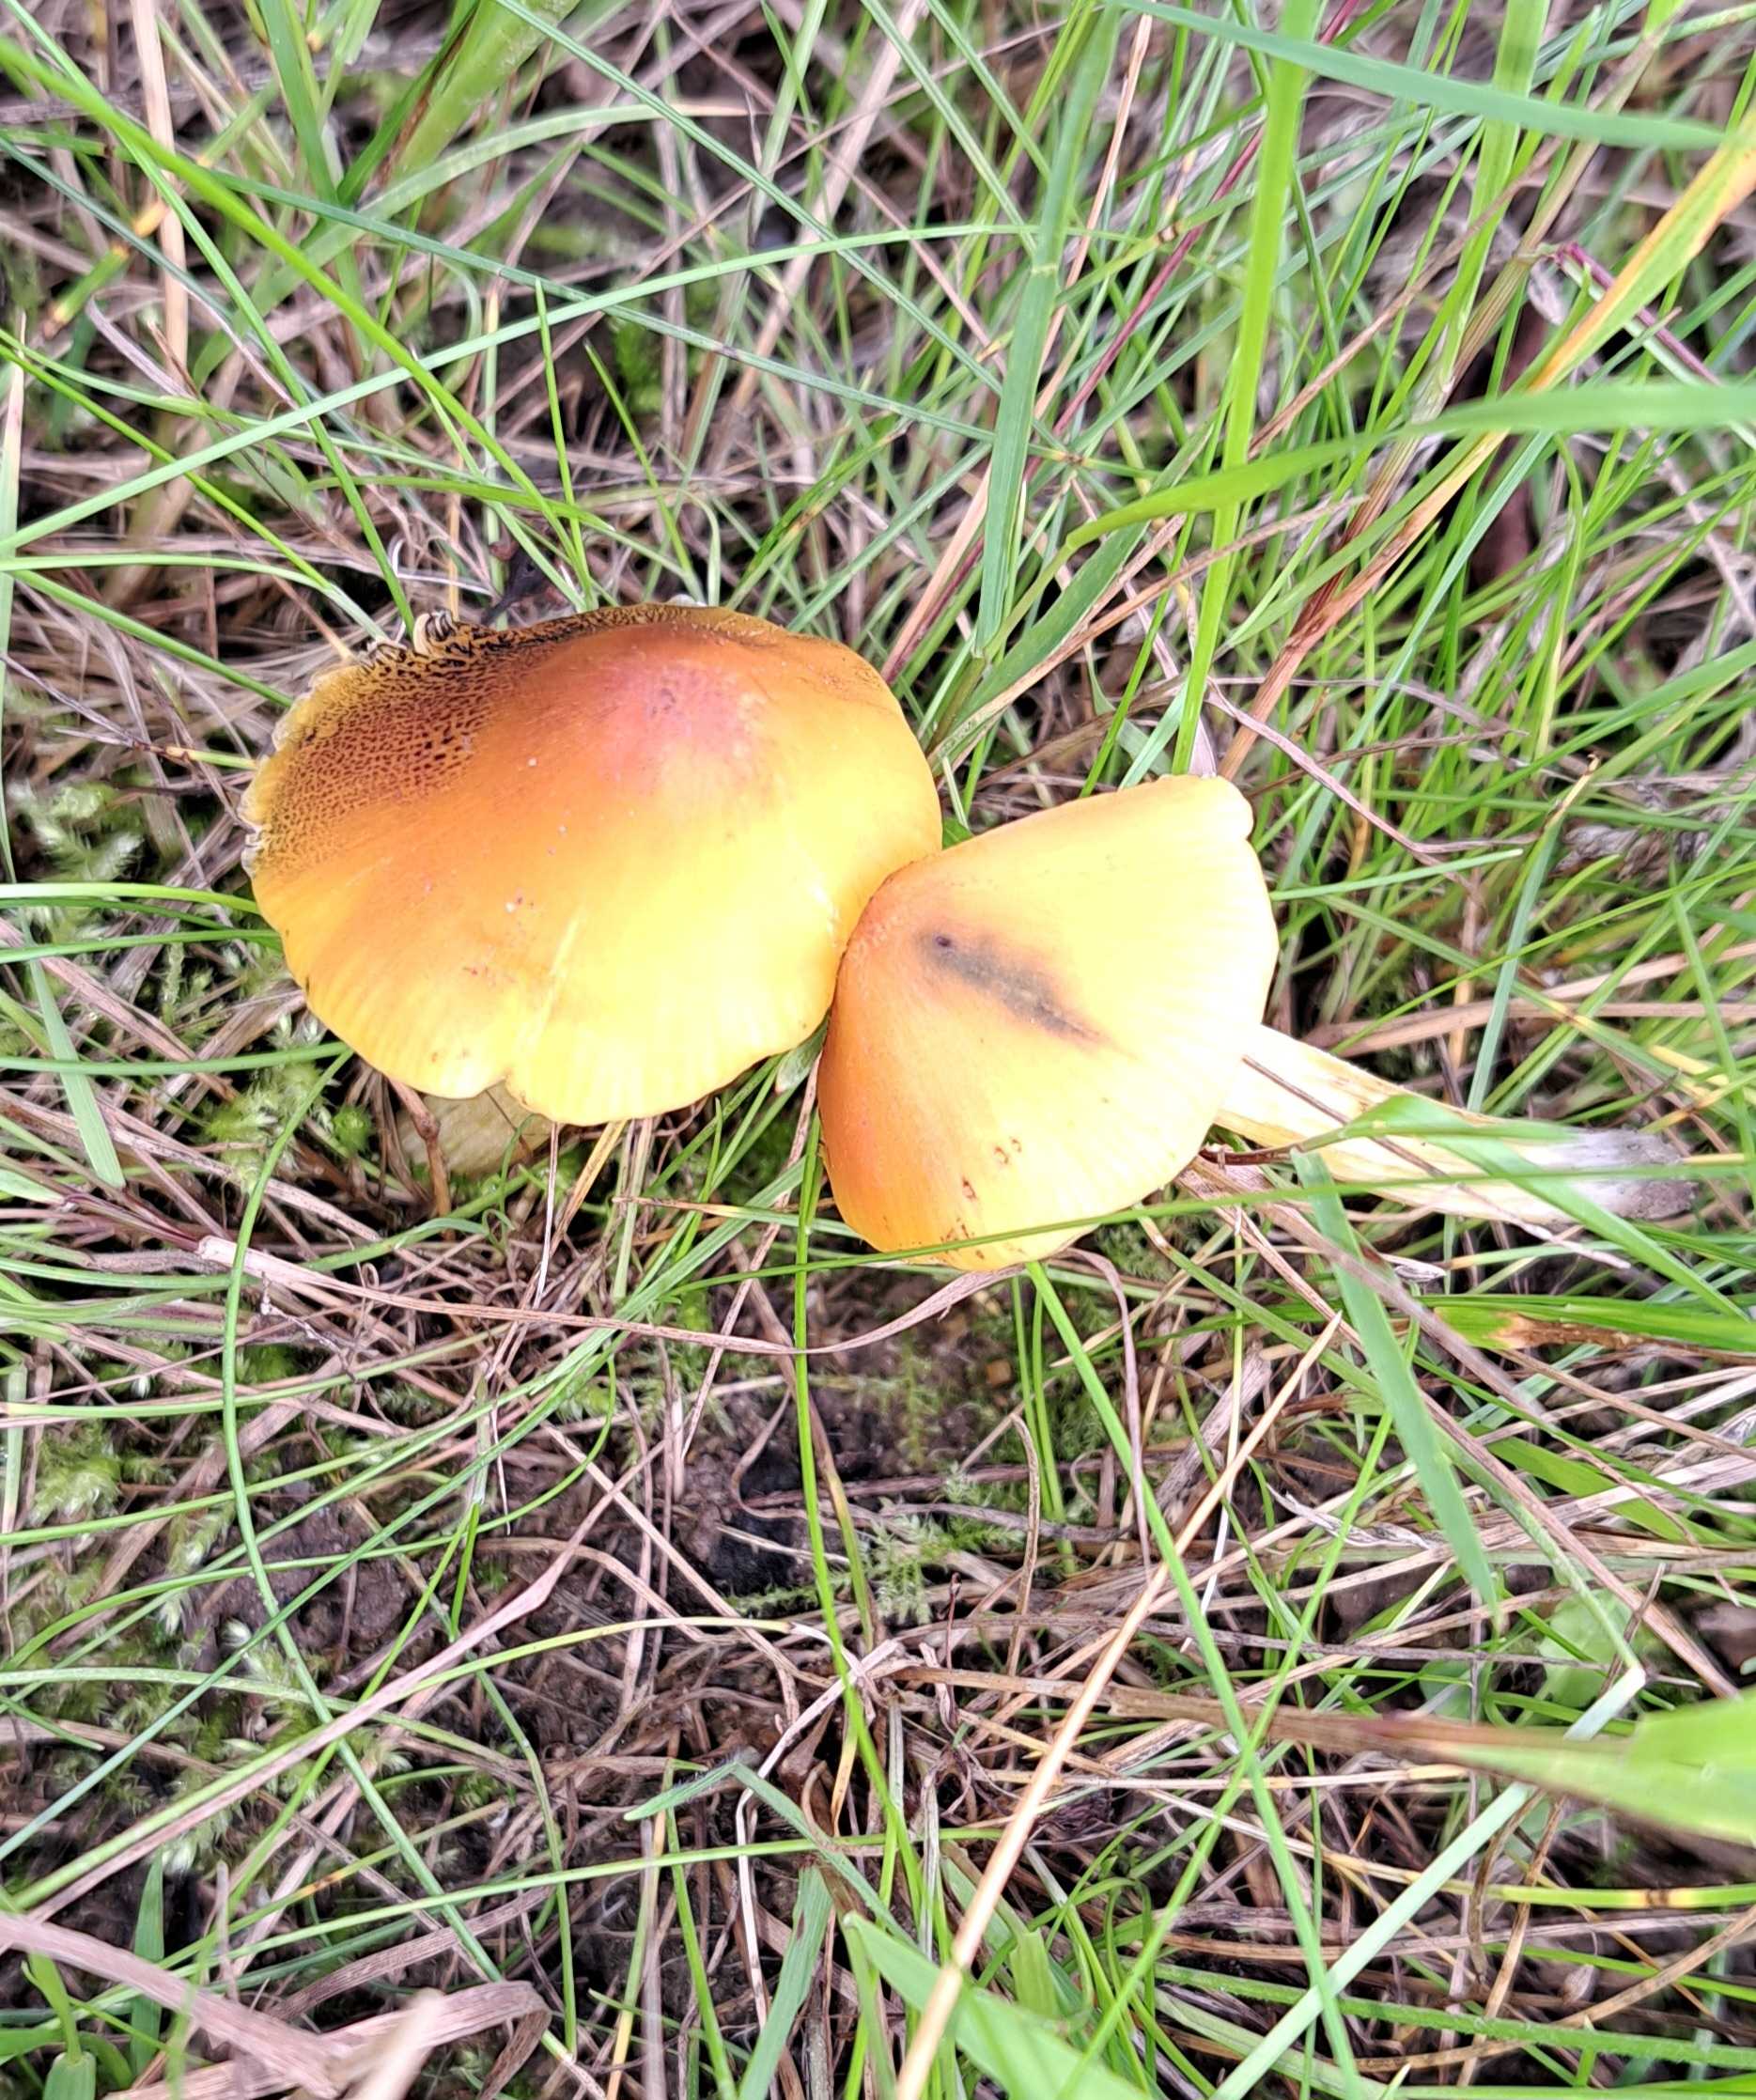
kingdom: Fungi
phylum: Basidiomycota
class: Agaricomycetes
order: Agaricales
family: Hygrophoraceae
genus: Hygrocybe
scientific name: Hygrocybe conica
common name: kegle-vokshat
